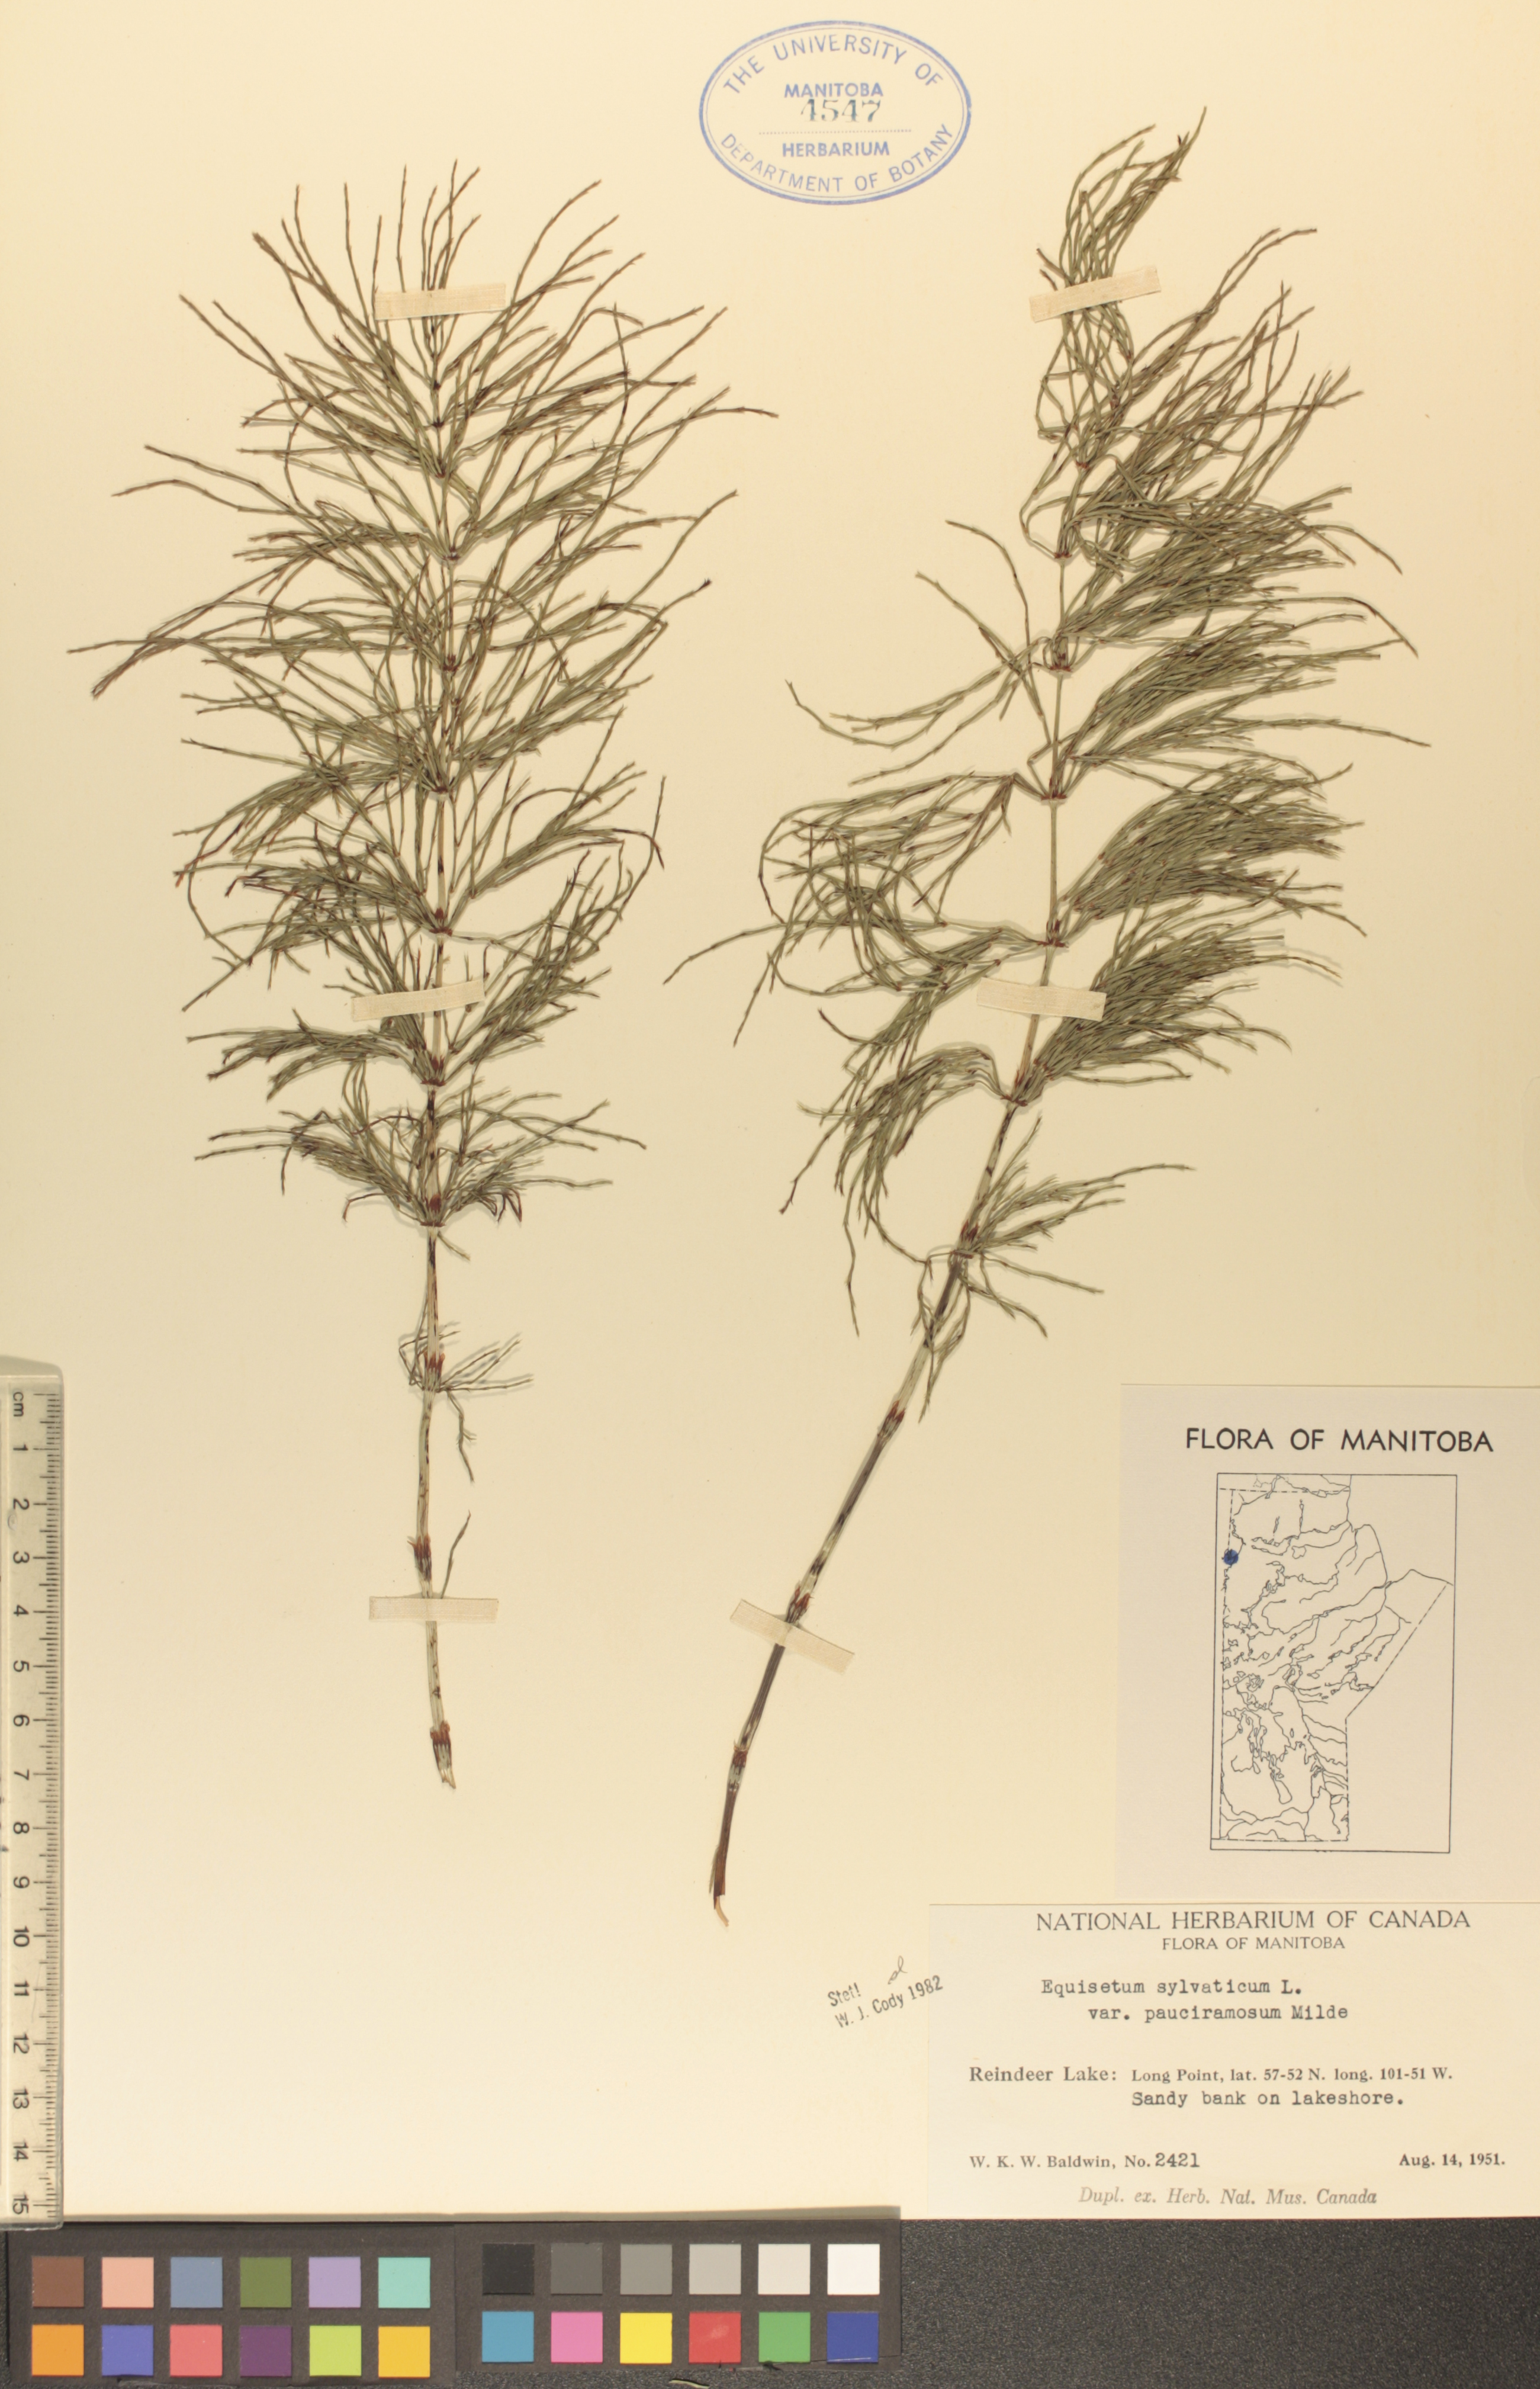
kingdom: Plantae
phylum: Tracheophyta
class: Polypodiopsida
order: Equisetales
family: Equisetaceae
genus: Equisetum
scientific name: Equisetum sylvaticum
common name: Wood horsetail
